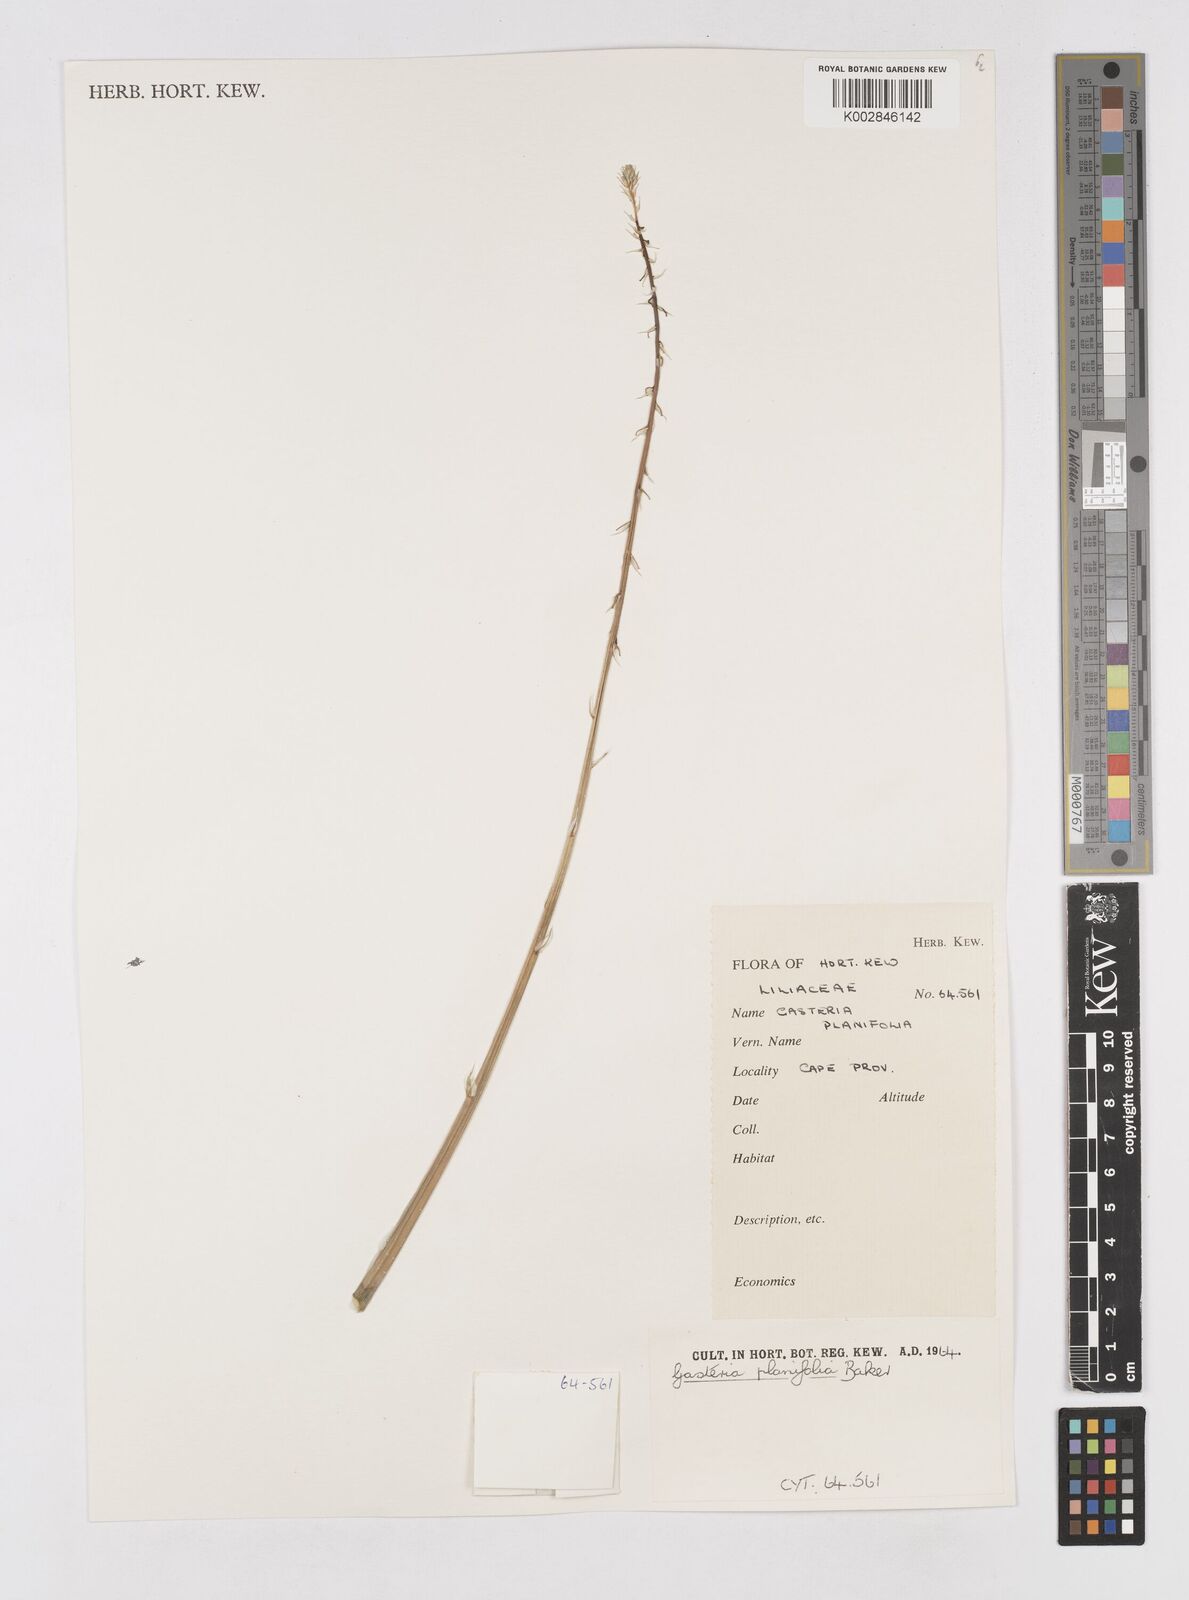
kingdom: Plantae
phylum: Tracheophyta
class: Liliopsida
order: Asparagales
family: Asphodelaceae
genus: Gasteria
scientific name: Gasteria obliqua
